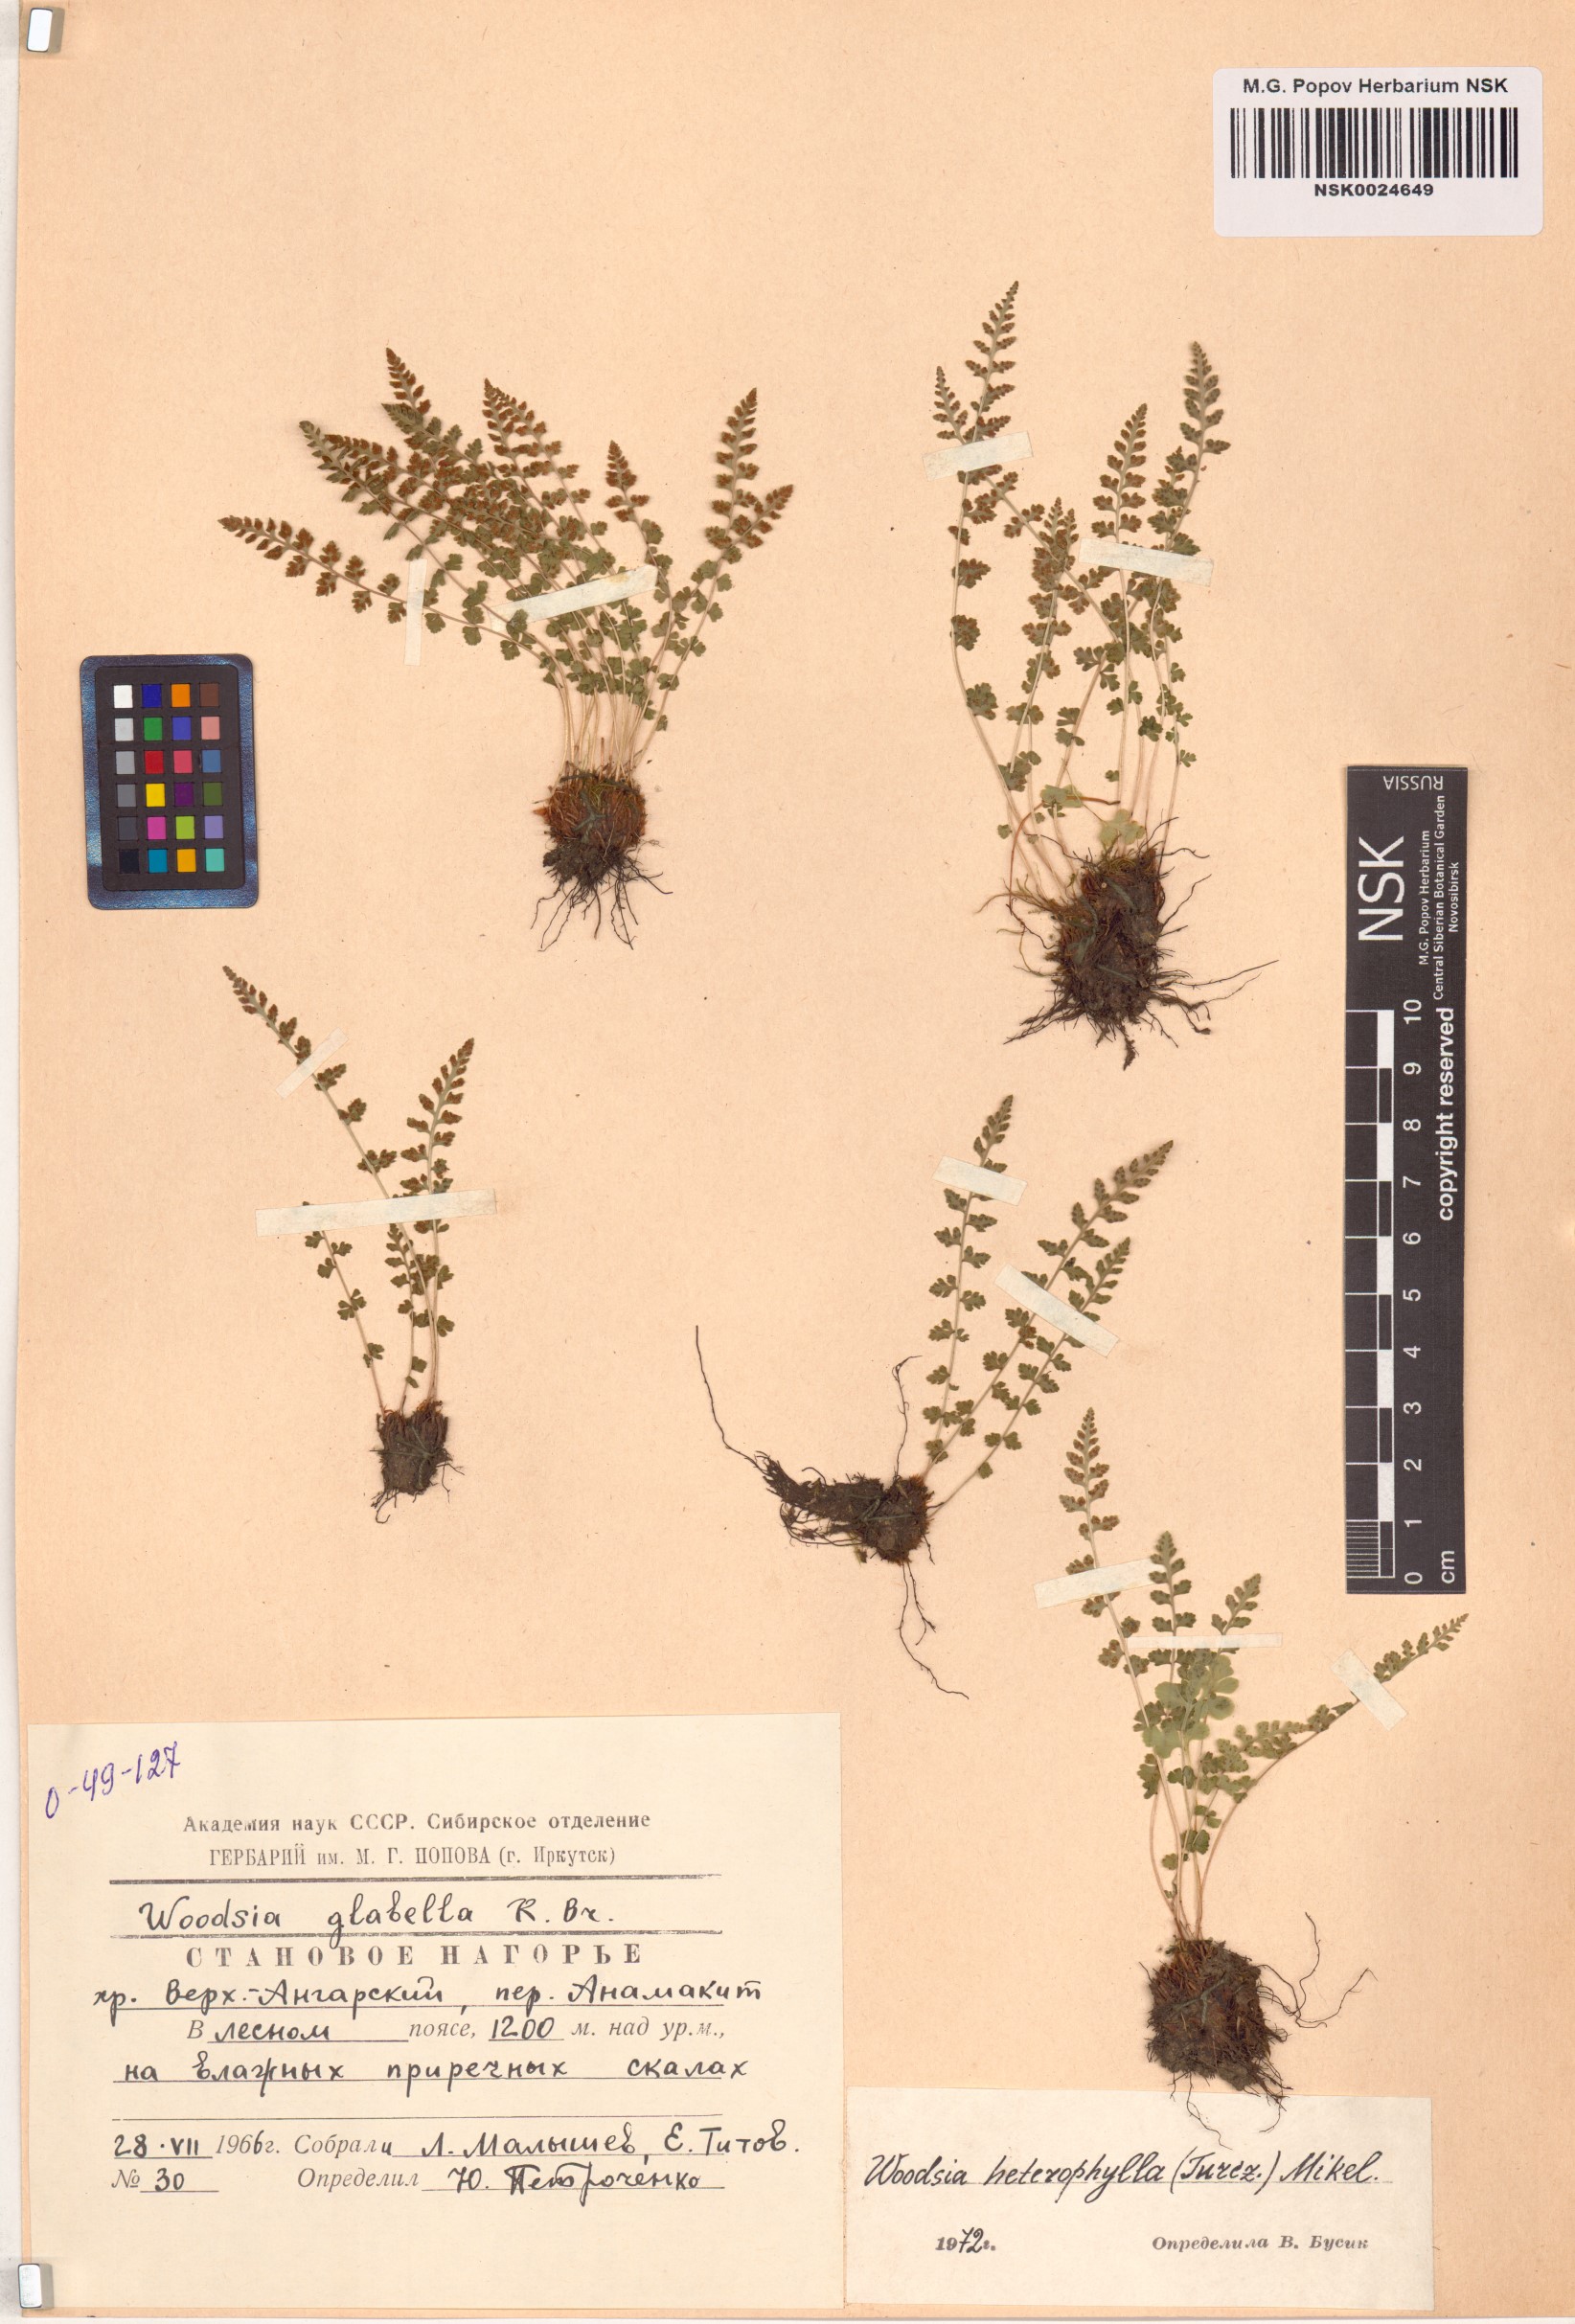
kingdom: Plantae
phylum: Tracheophyta
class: Polypodiopsida
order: Polypodiales
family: Woodsiaceae
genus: Woodsia
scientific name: Woodsia pulchella
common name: Graceful woodsia
